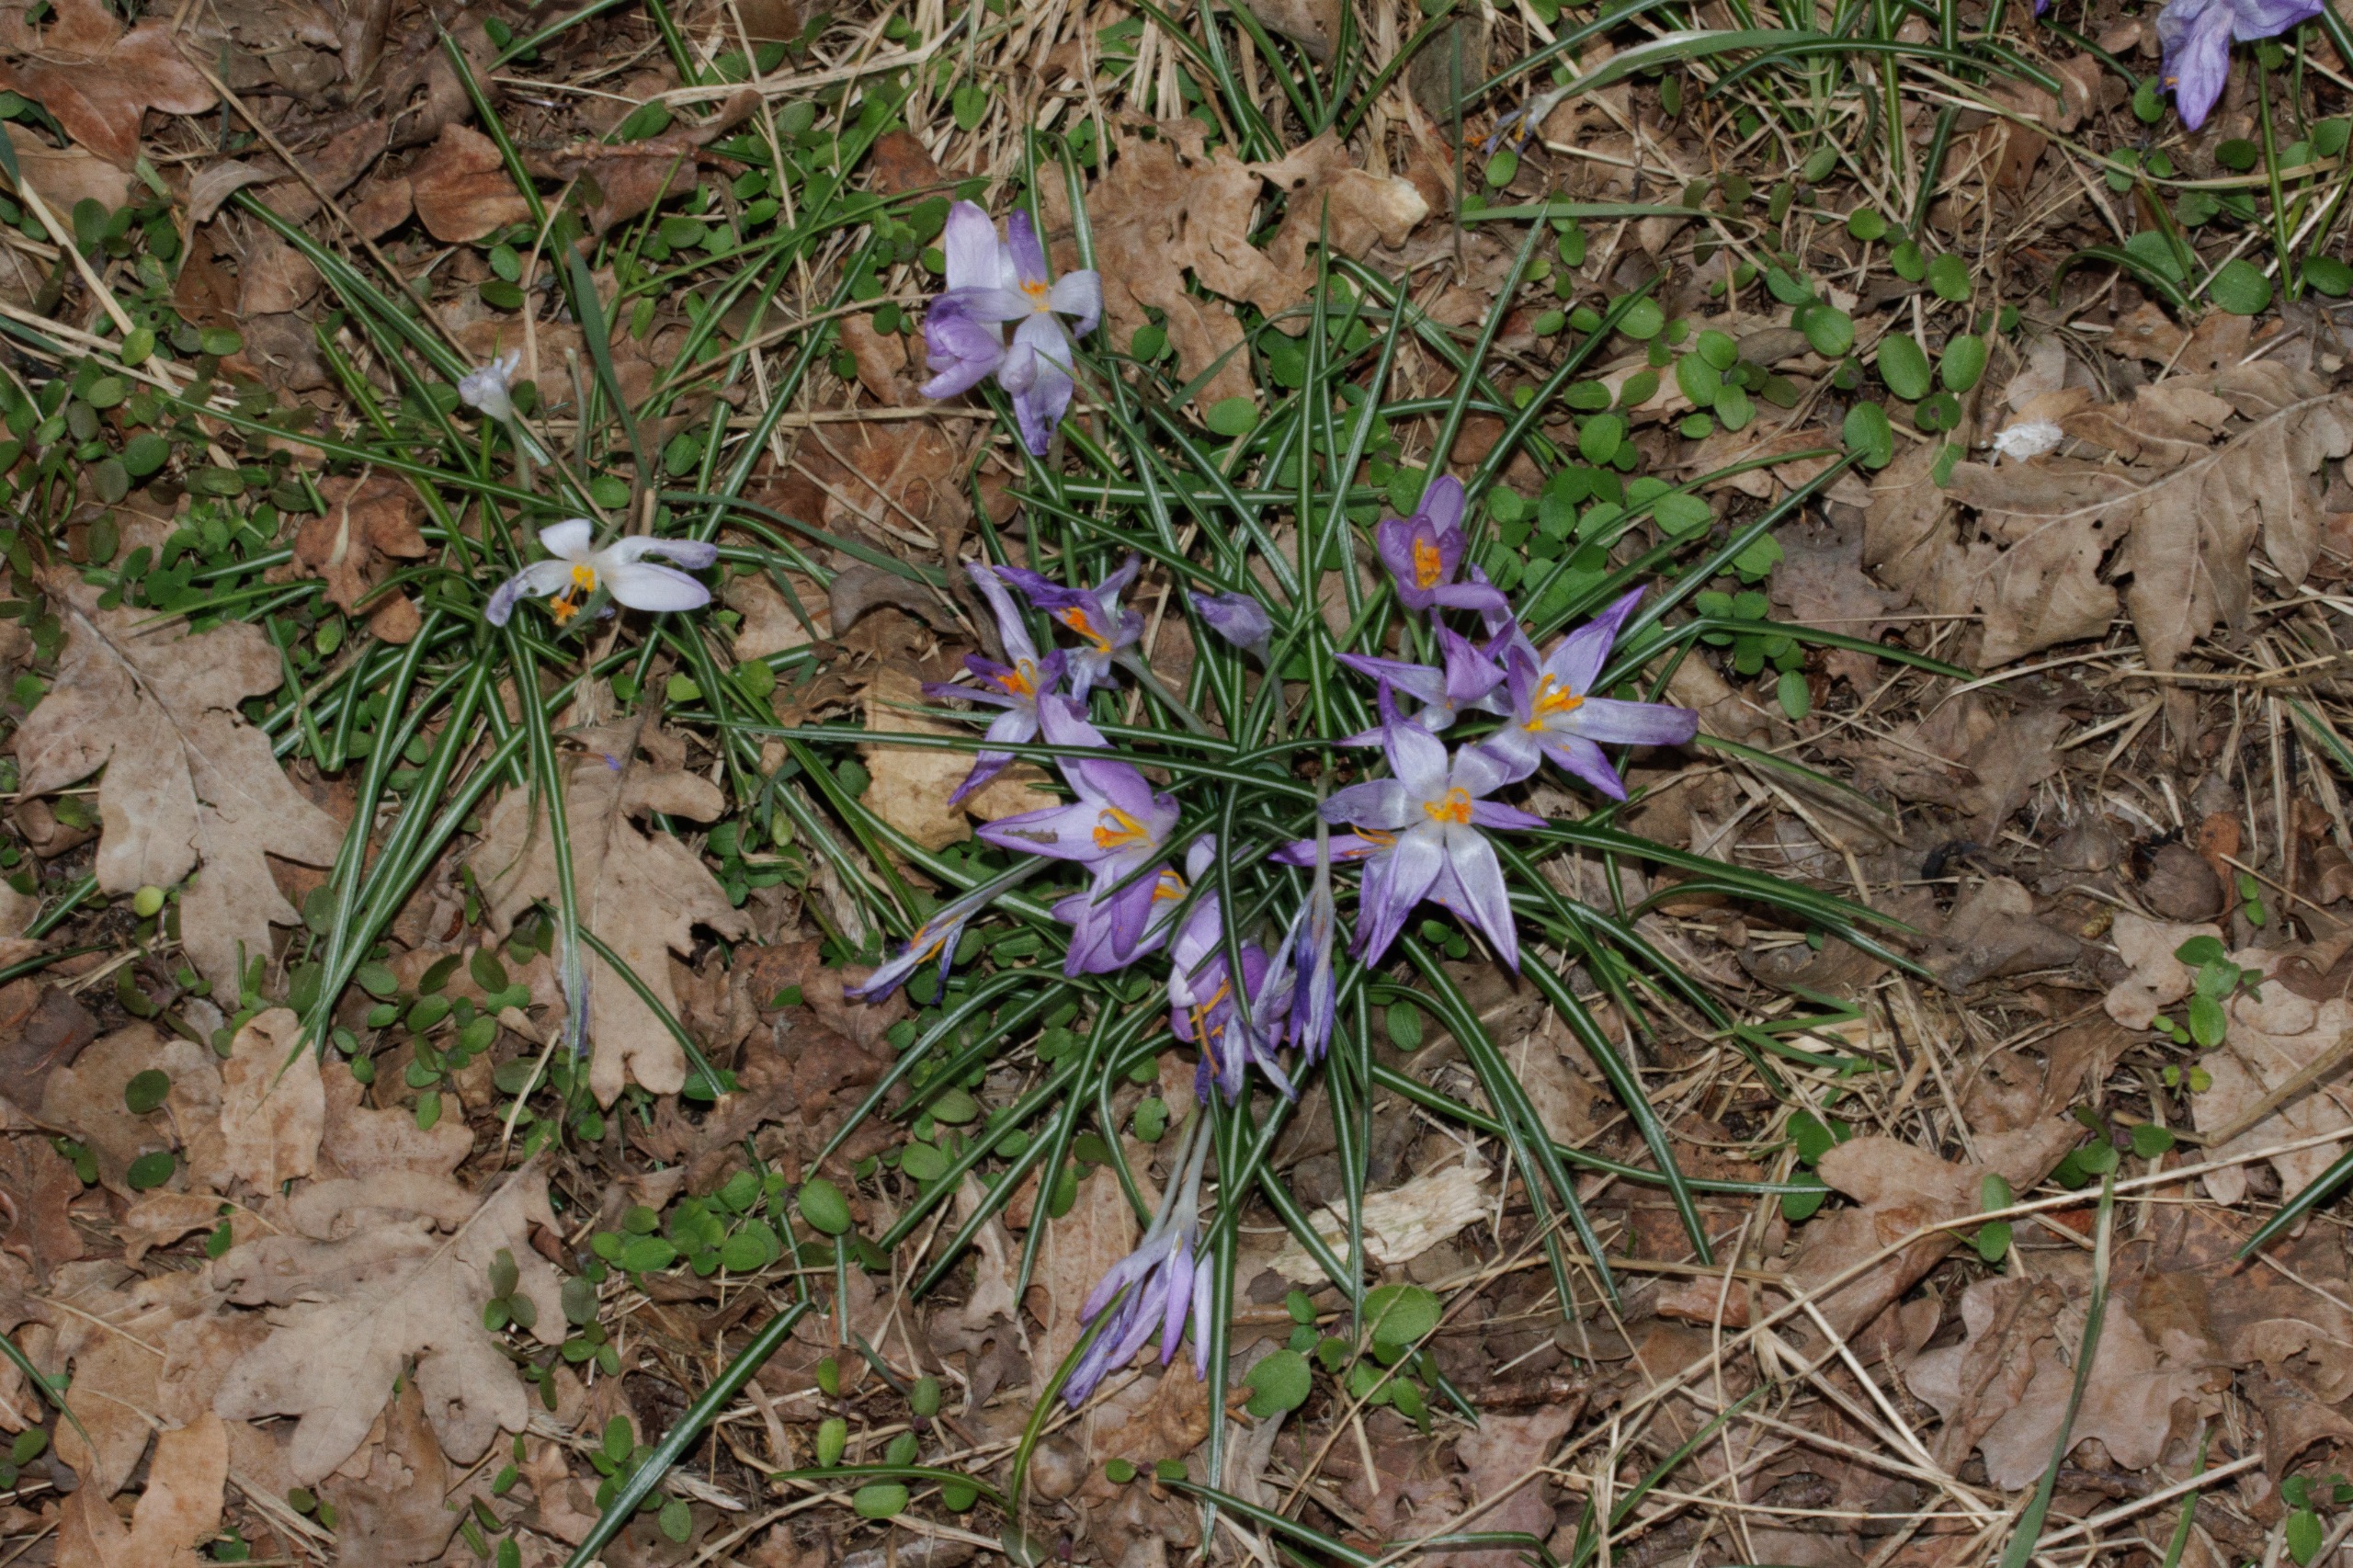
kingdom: Plantae
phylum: Tracheophyta
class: Liliopsida
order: Asparagales
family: Iridaceae
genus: Crocus
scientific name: Crocus tommasinianus
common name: Sne-krokus
